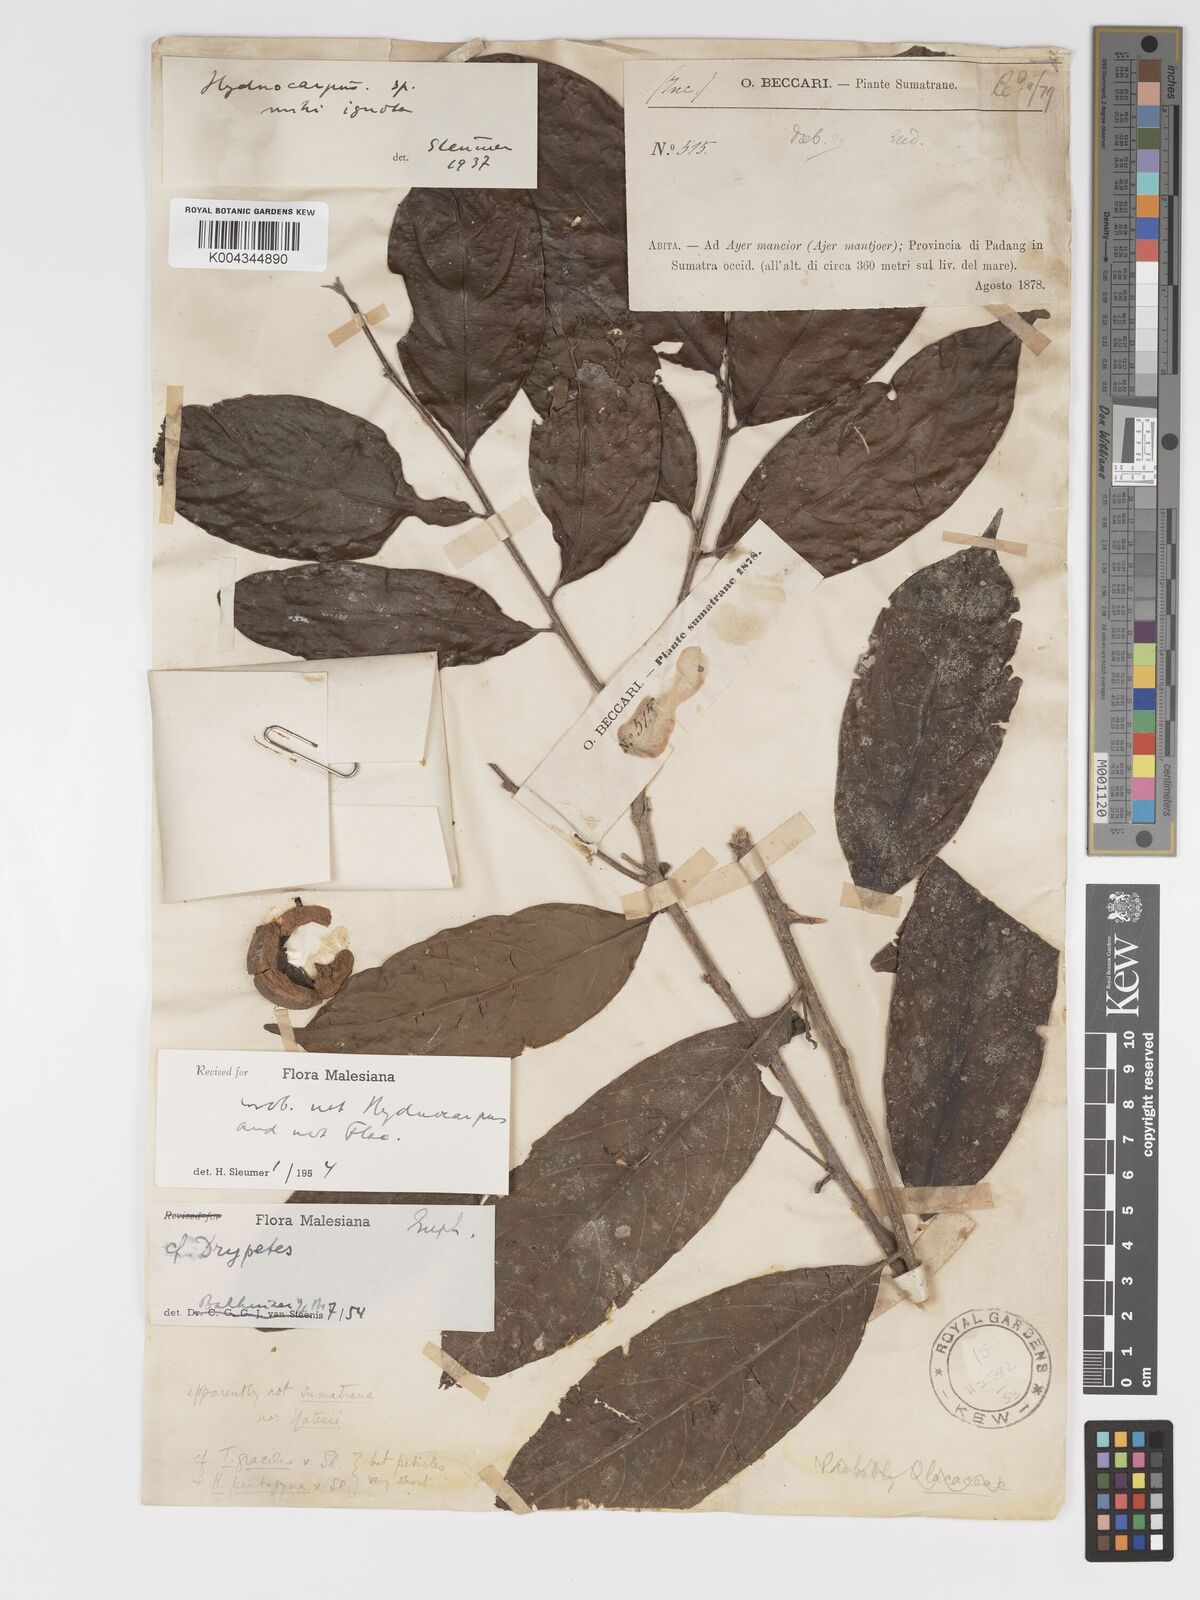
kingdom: Plantae
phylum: Tracheophyta
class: Magnoliopsida
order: Malpighiales
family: Putranjivaceae
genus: Drypetes
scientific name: Drypetes
